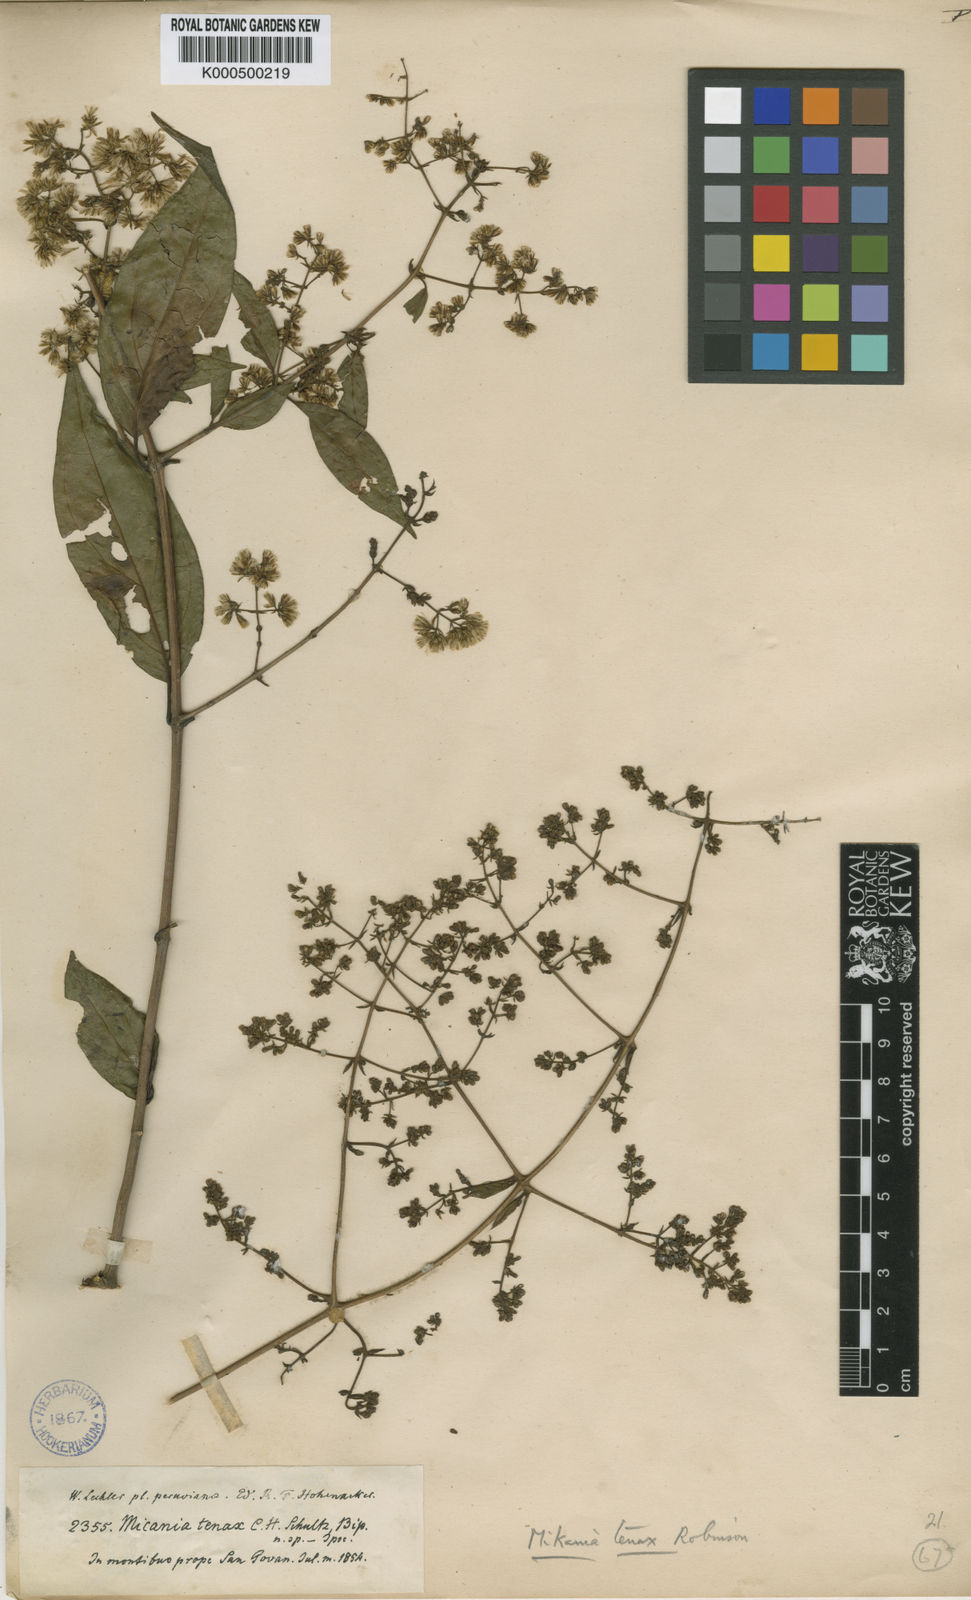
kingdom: Plantae
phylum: Tracheophyta
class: Magnoliopsida
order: Asterales
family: Asteraceae
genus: Mikania
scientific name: Mikania
